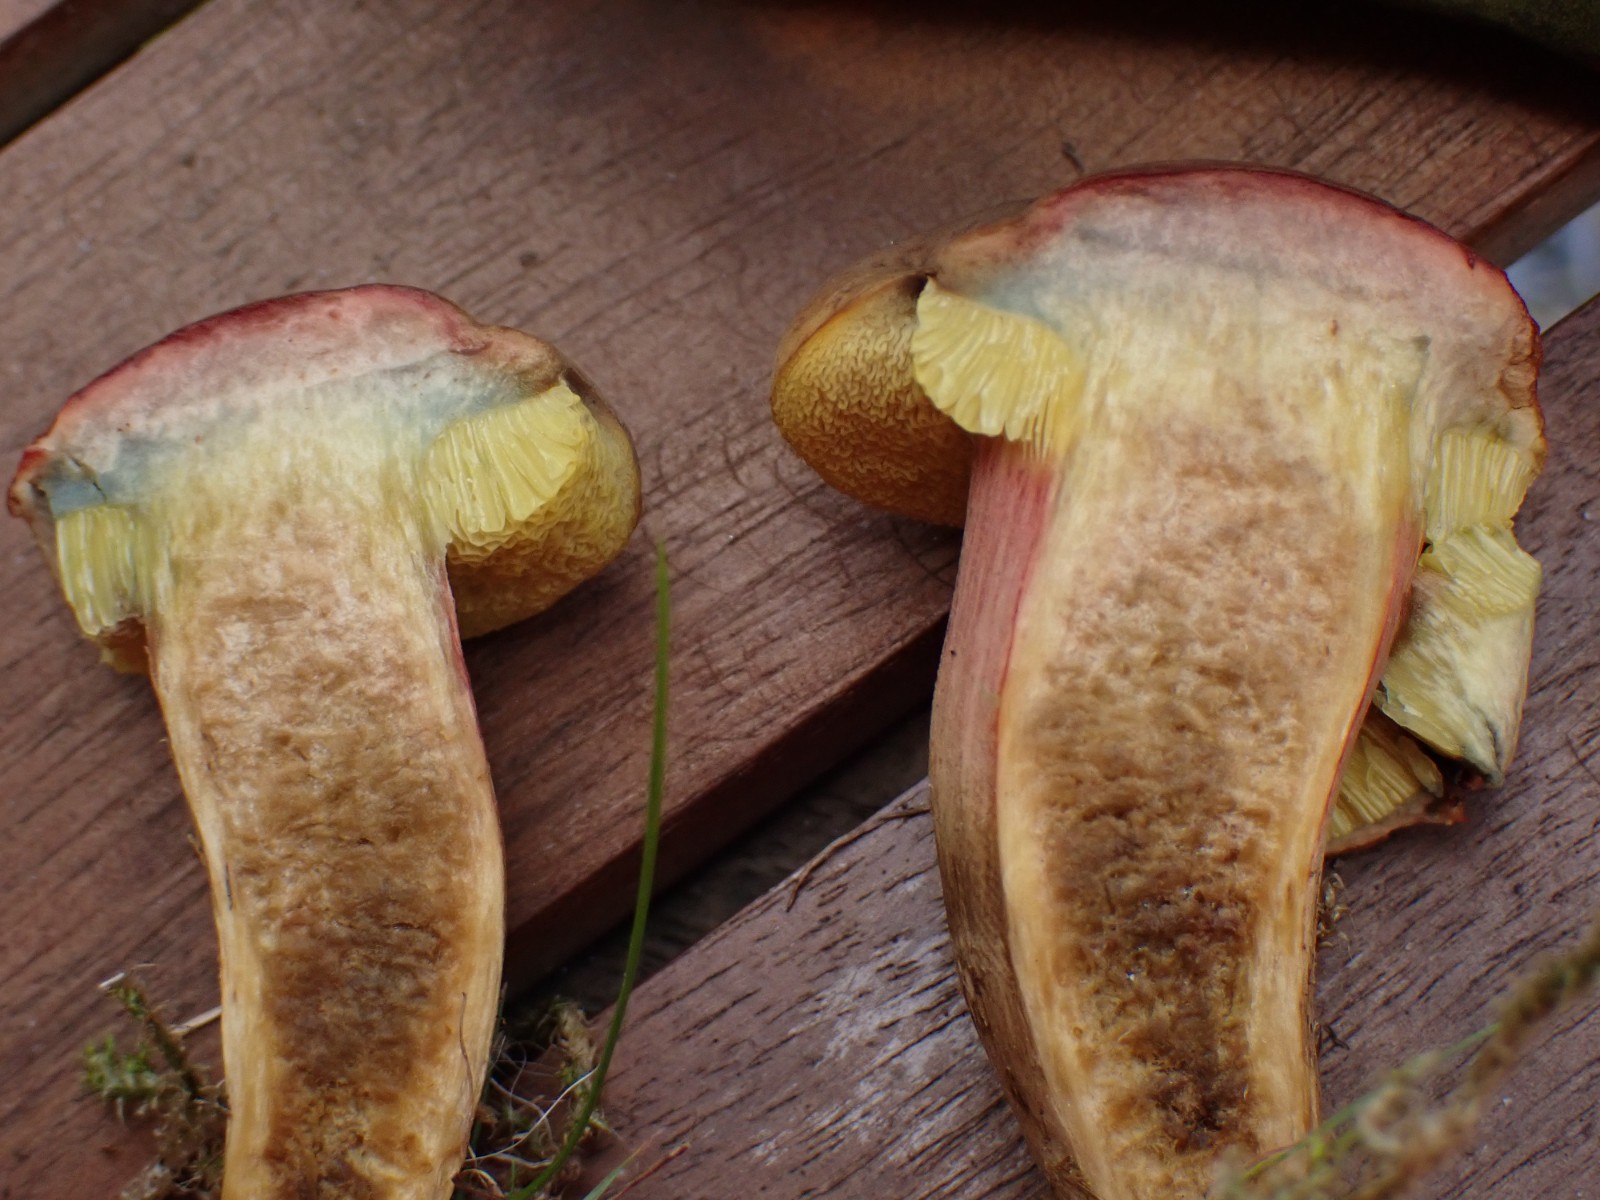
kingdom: Fungi
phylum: Basidiomycota
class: Agaricomycetes
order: Boletales
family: Boletaceae
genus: Hortiboletus
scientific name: Hortiboletus bubalinus
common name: aurora-rørhat
